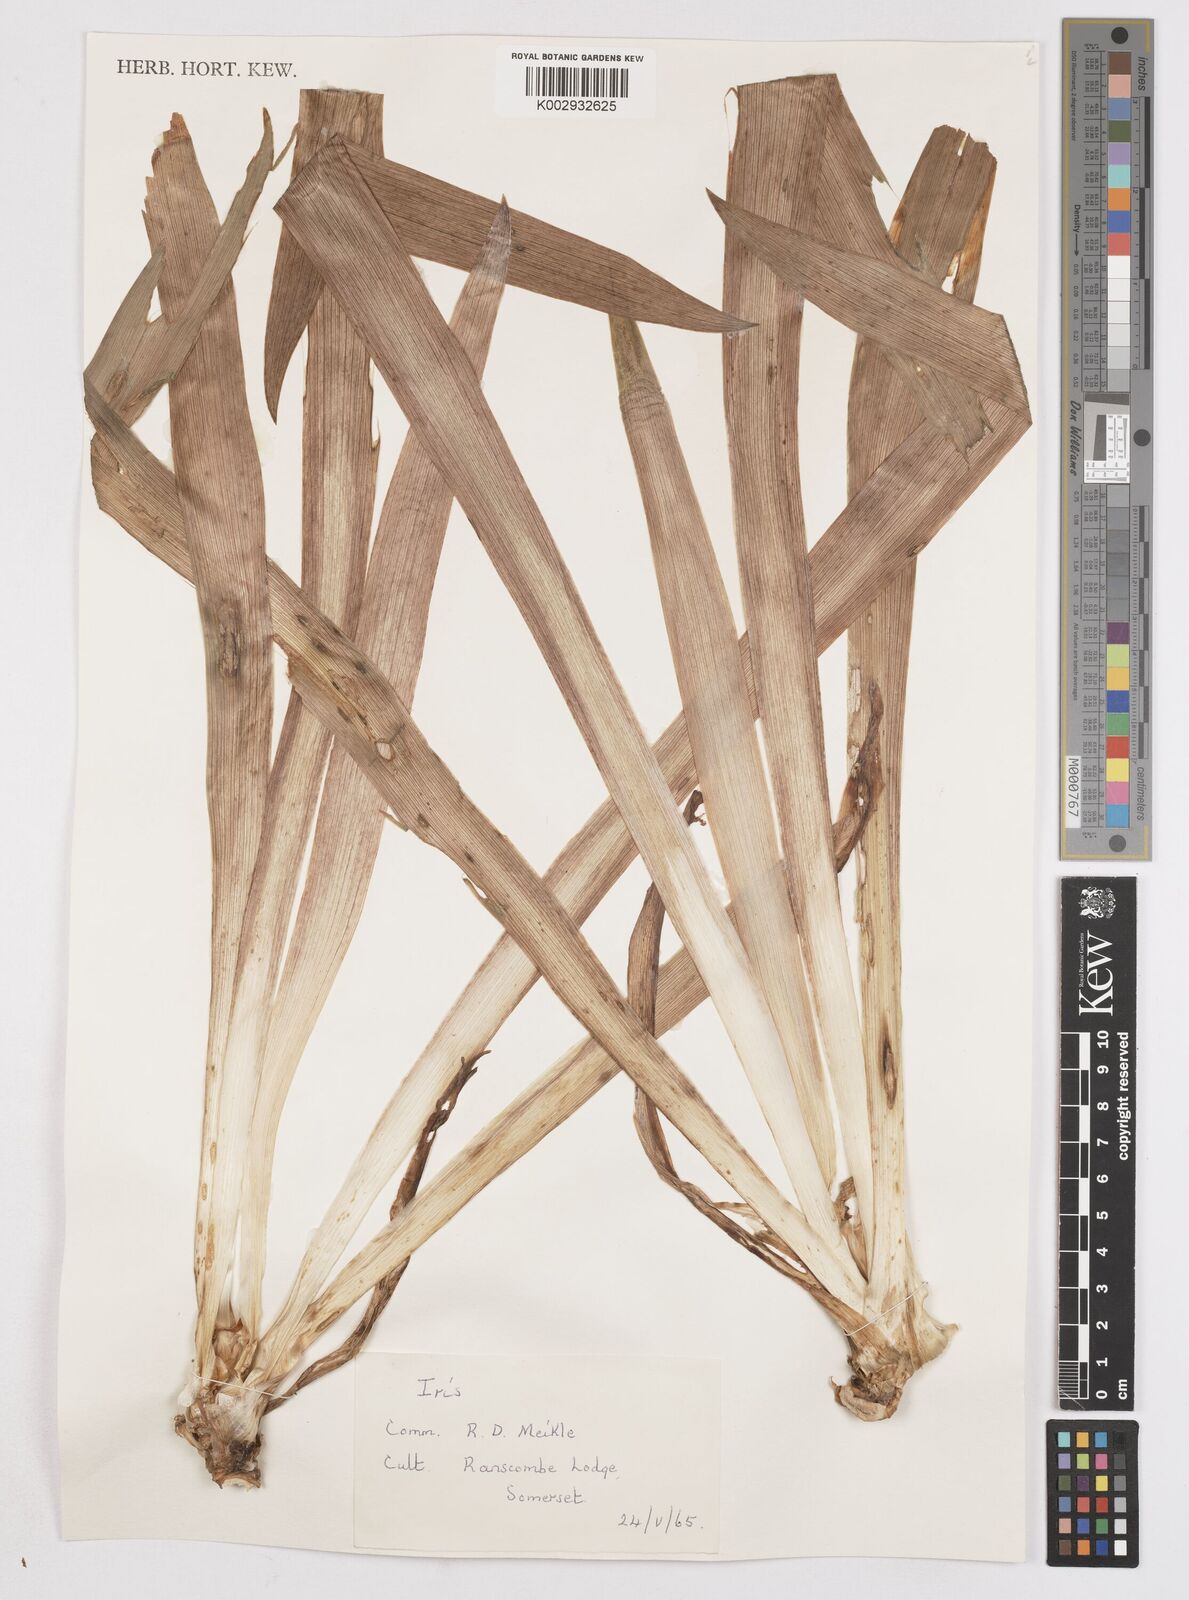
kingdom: Plantae
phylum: Tracheophyta
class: Liliopsida
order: Asparagales
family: Iridaceae
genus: Iris
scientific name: Iris
